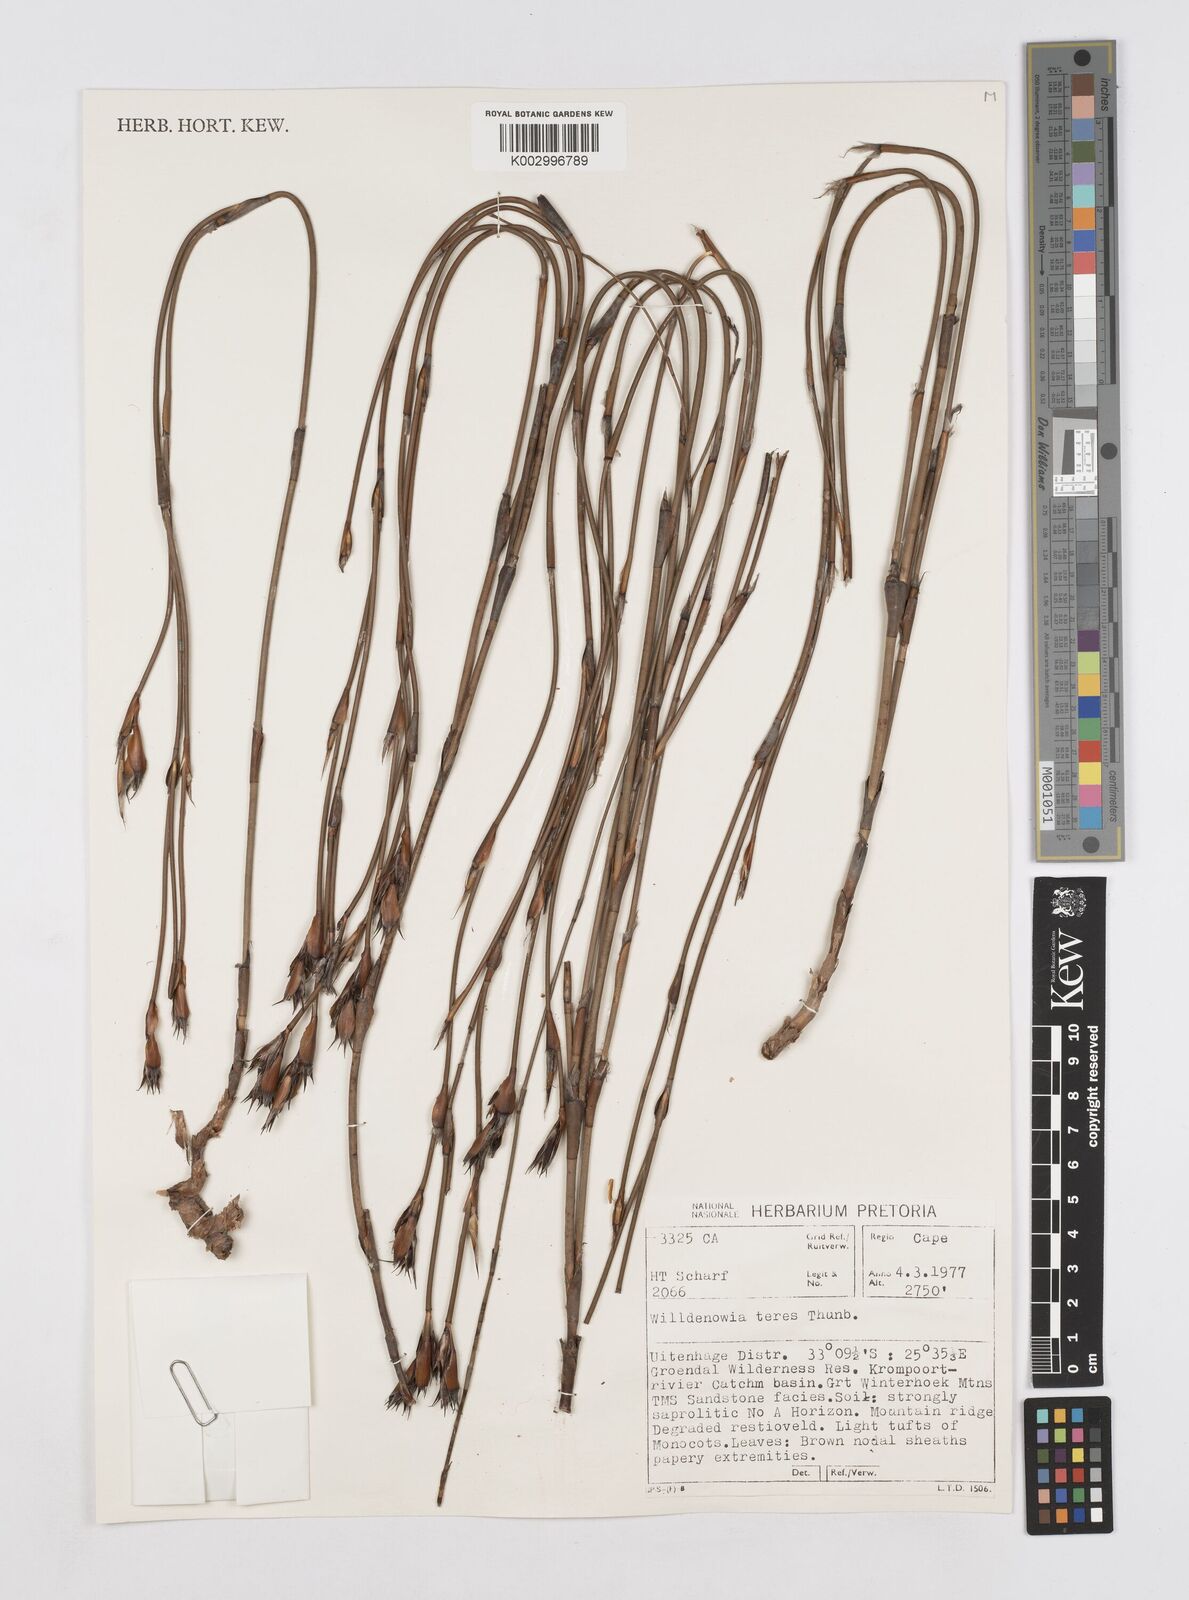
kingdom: Plantae
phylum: Tracheophyta
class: Liliopsida
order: Poales
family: Restionaceae
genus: Willdenowia
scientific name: Willdenowia teres
